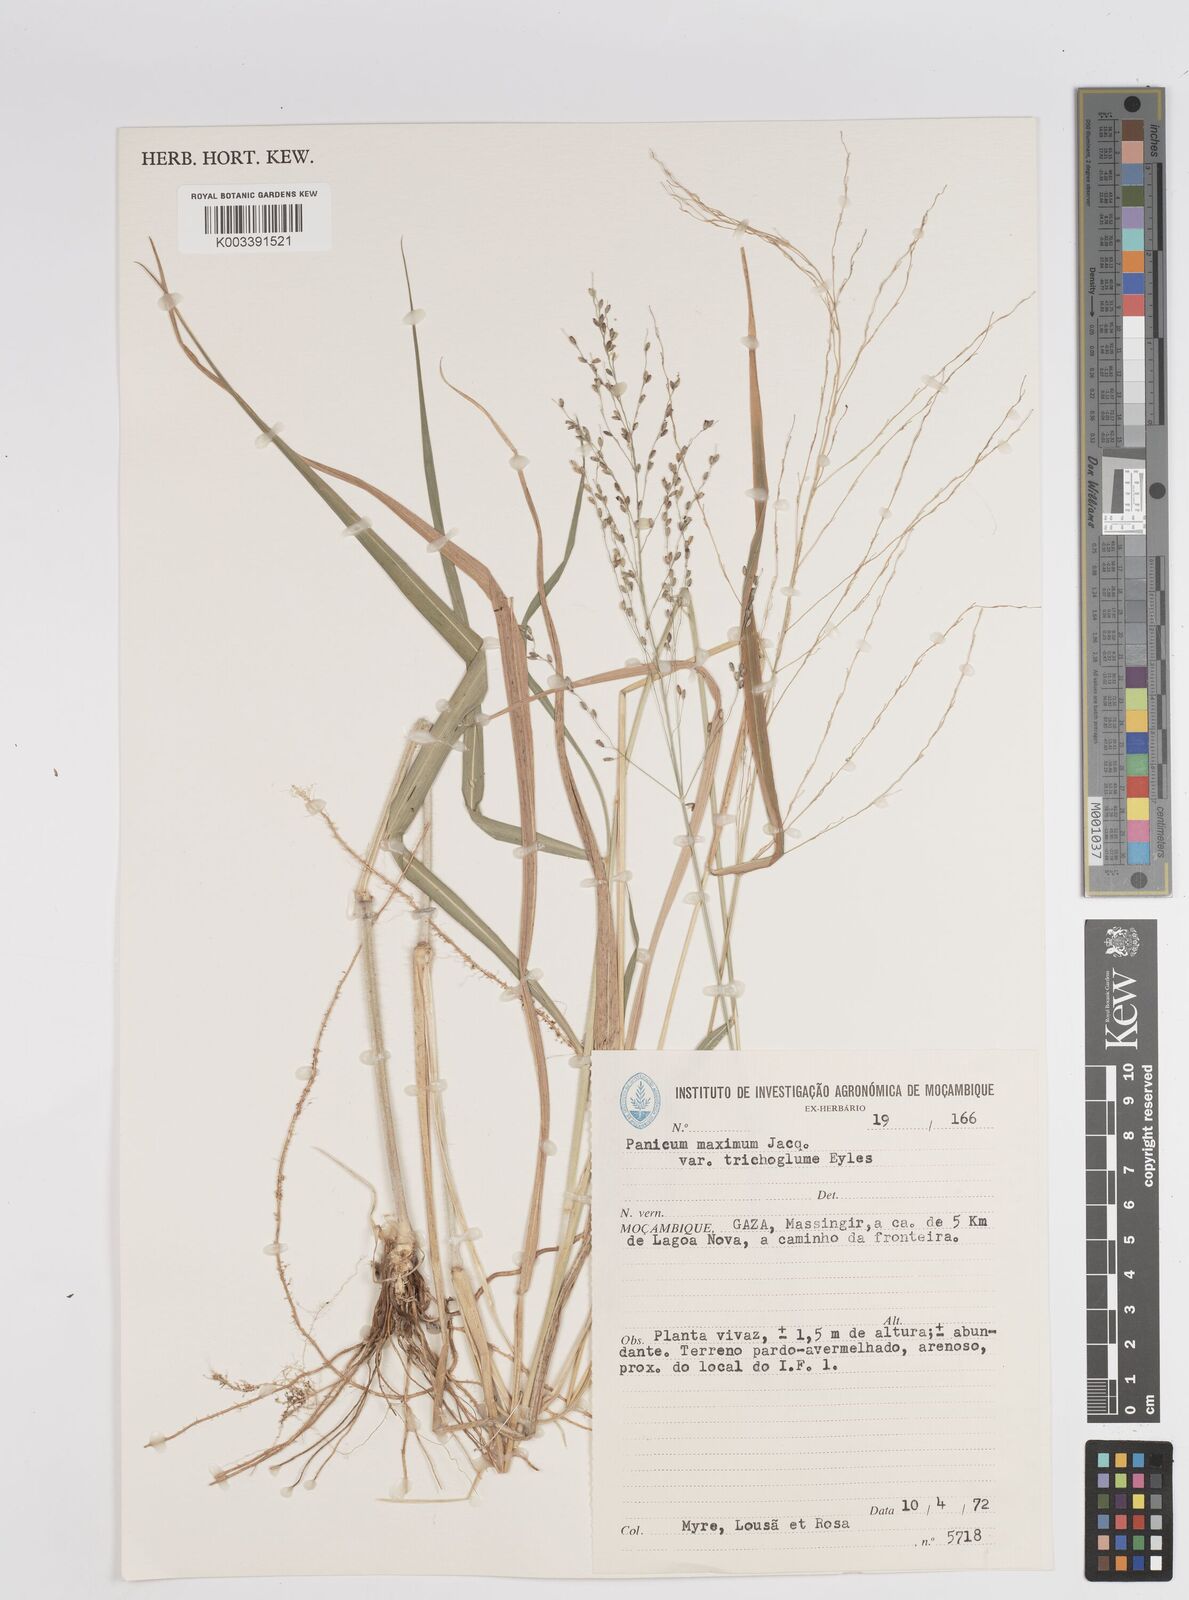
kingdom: Plantae
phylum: Tracheophyta
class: Liliopsida
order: Poales
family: Poaceae
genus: Megathyrsus
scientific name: Megathyrsus maximus
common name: Guineagrass
